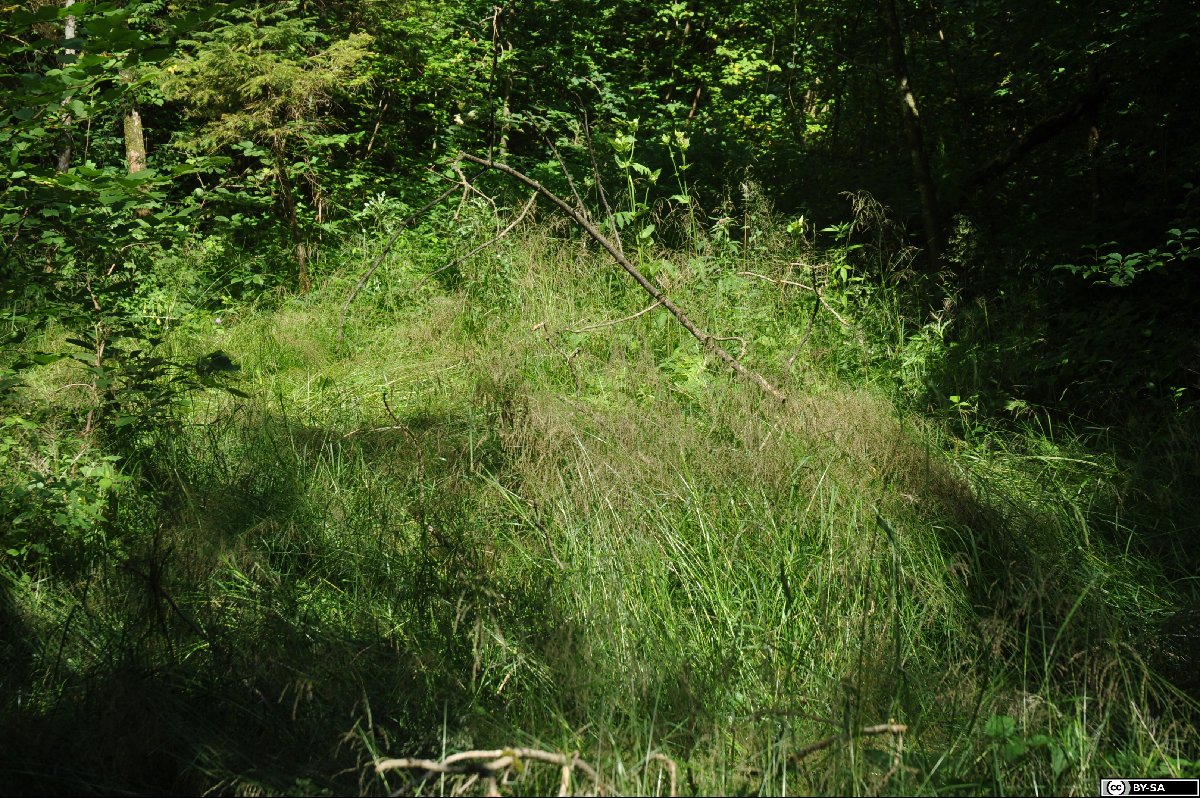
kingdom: Plantae
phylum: Tracheophyta
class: Liliopsida
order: Poales
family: Poaceae
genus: Glyceria
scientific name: Glyceria striata
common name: Fowl manna grass
